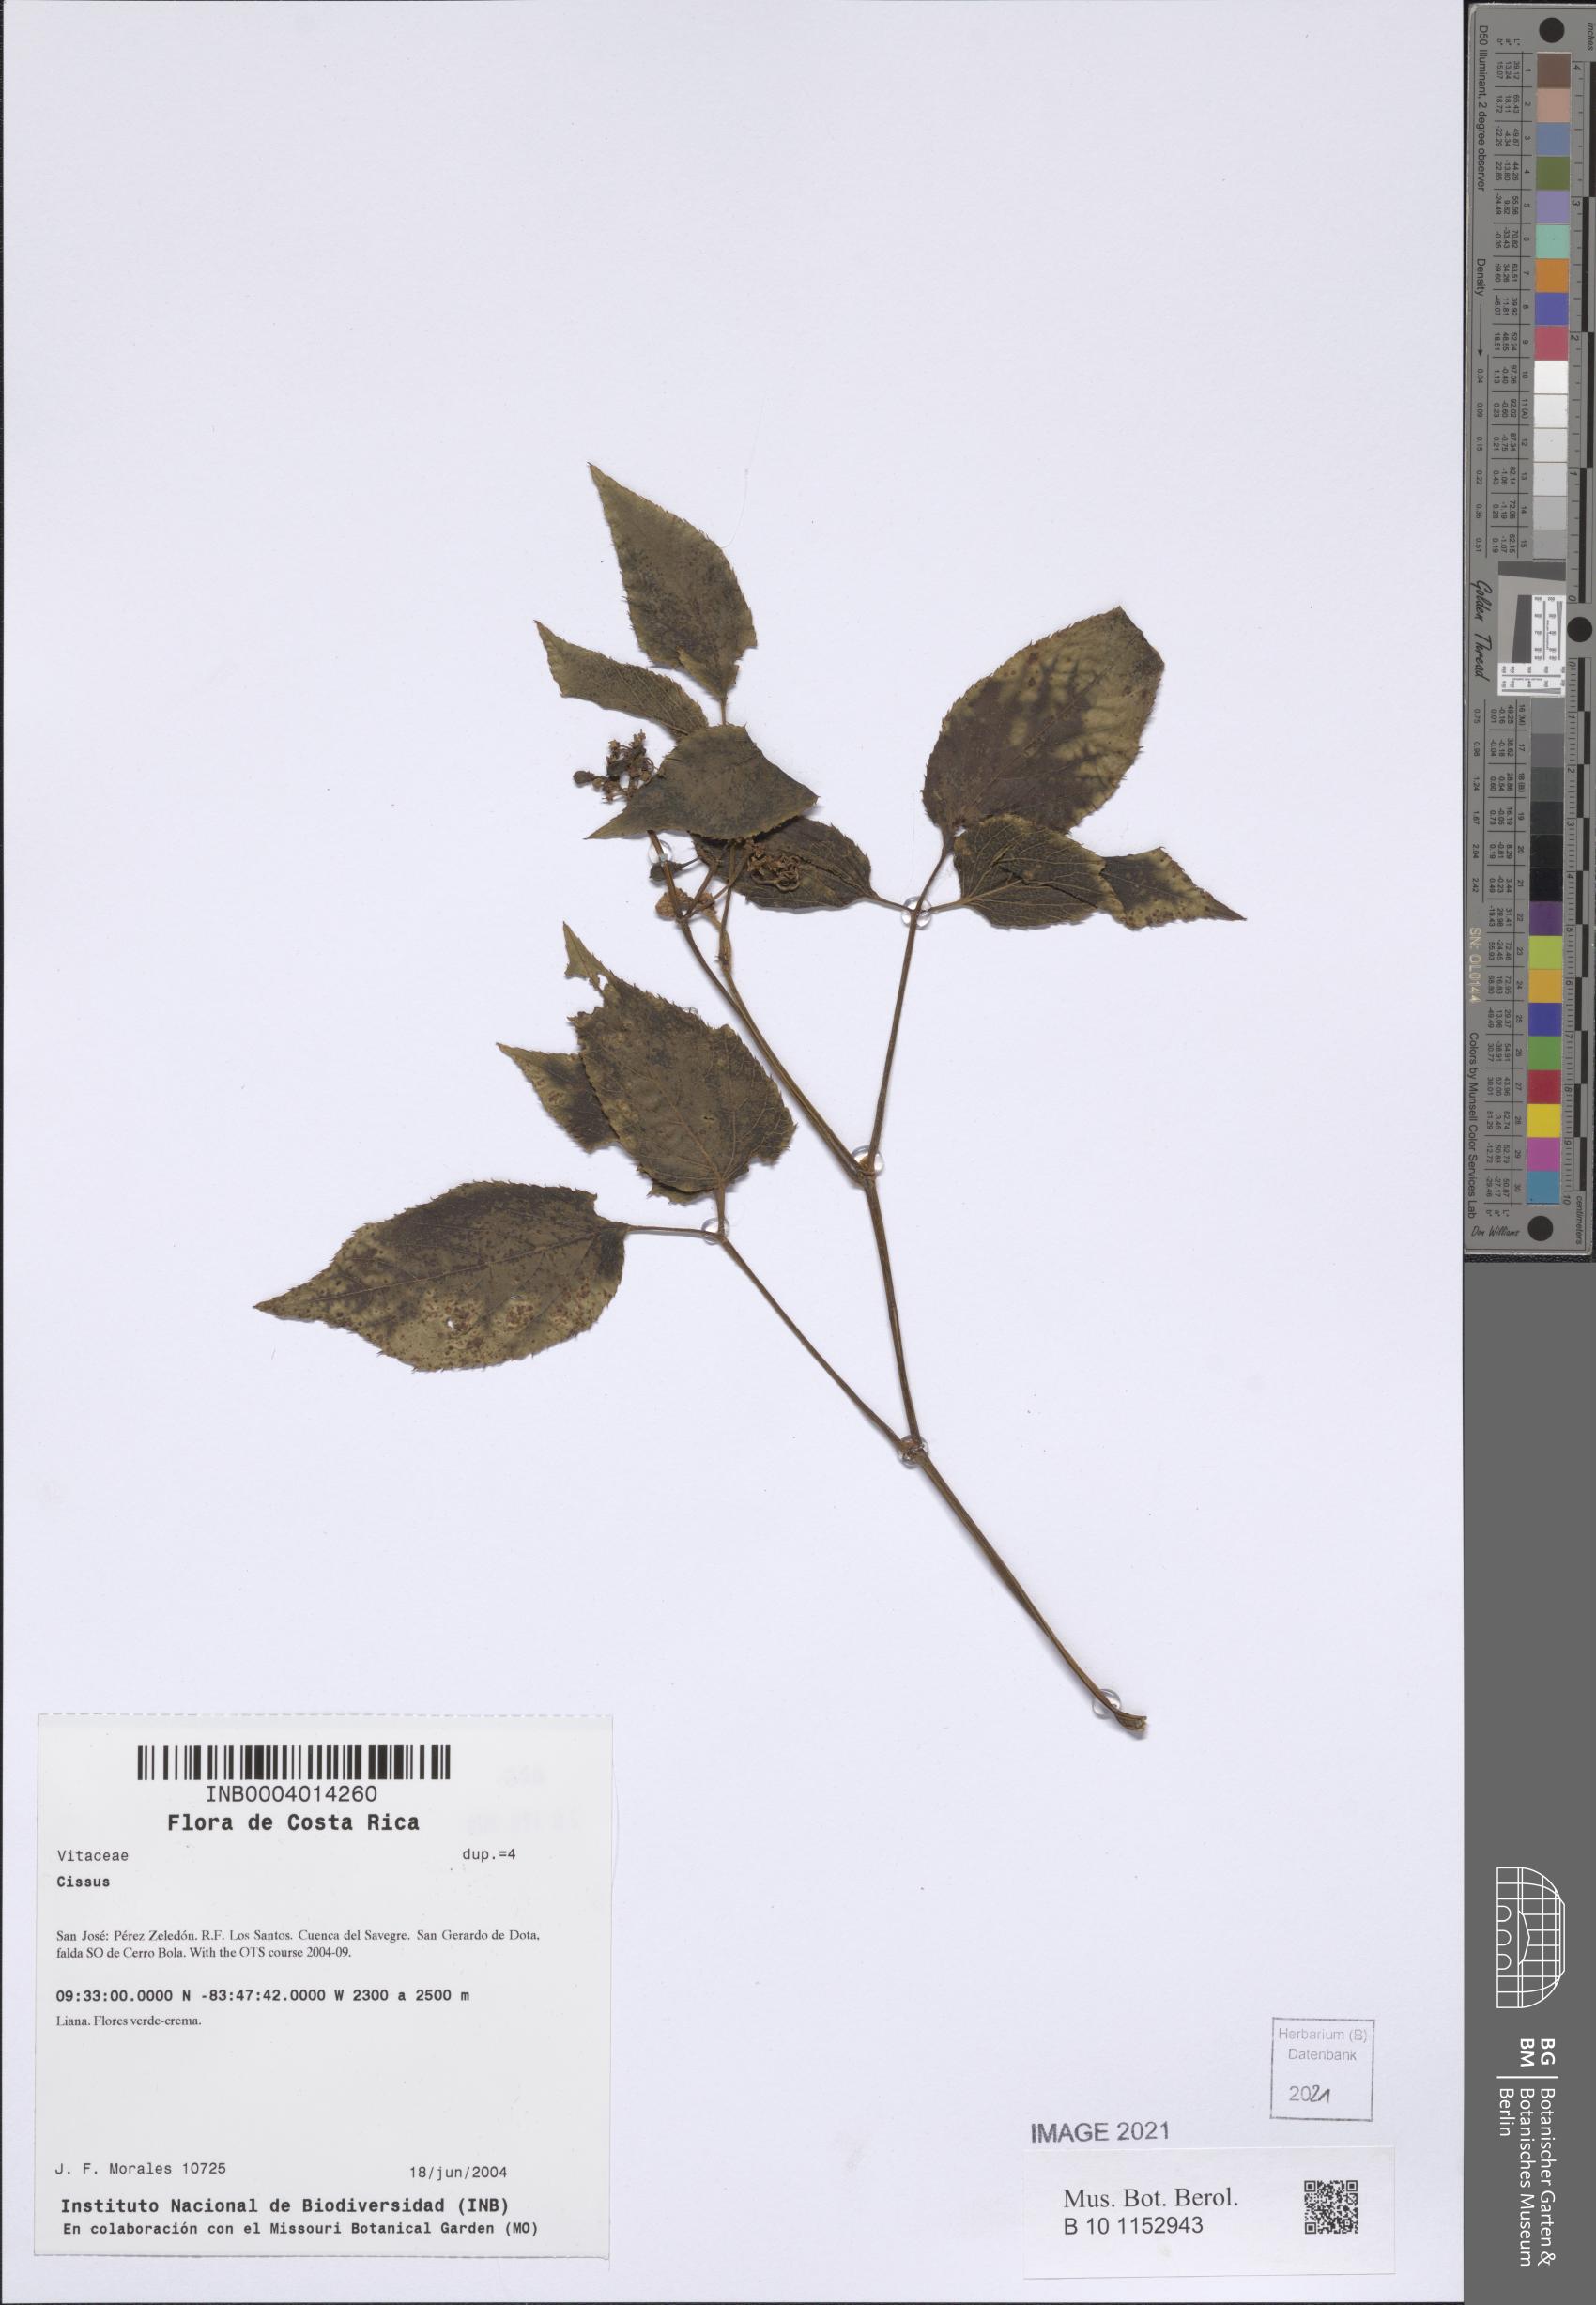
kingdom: Plantae
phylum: Tracheophyta
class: Magnoliopsida
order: Vitales
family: Vitaceae
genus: Cissus
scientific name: Cissus
